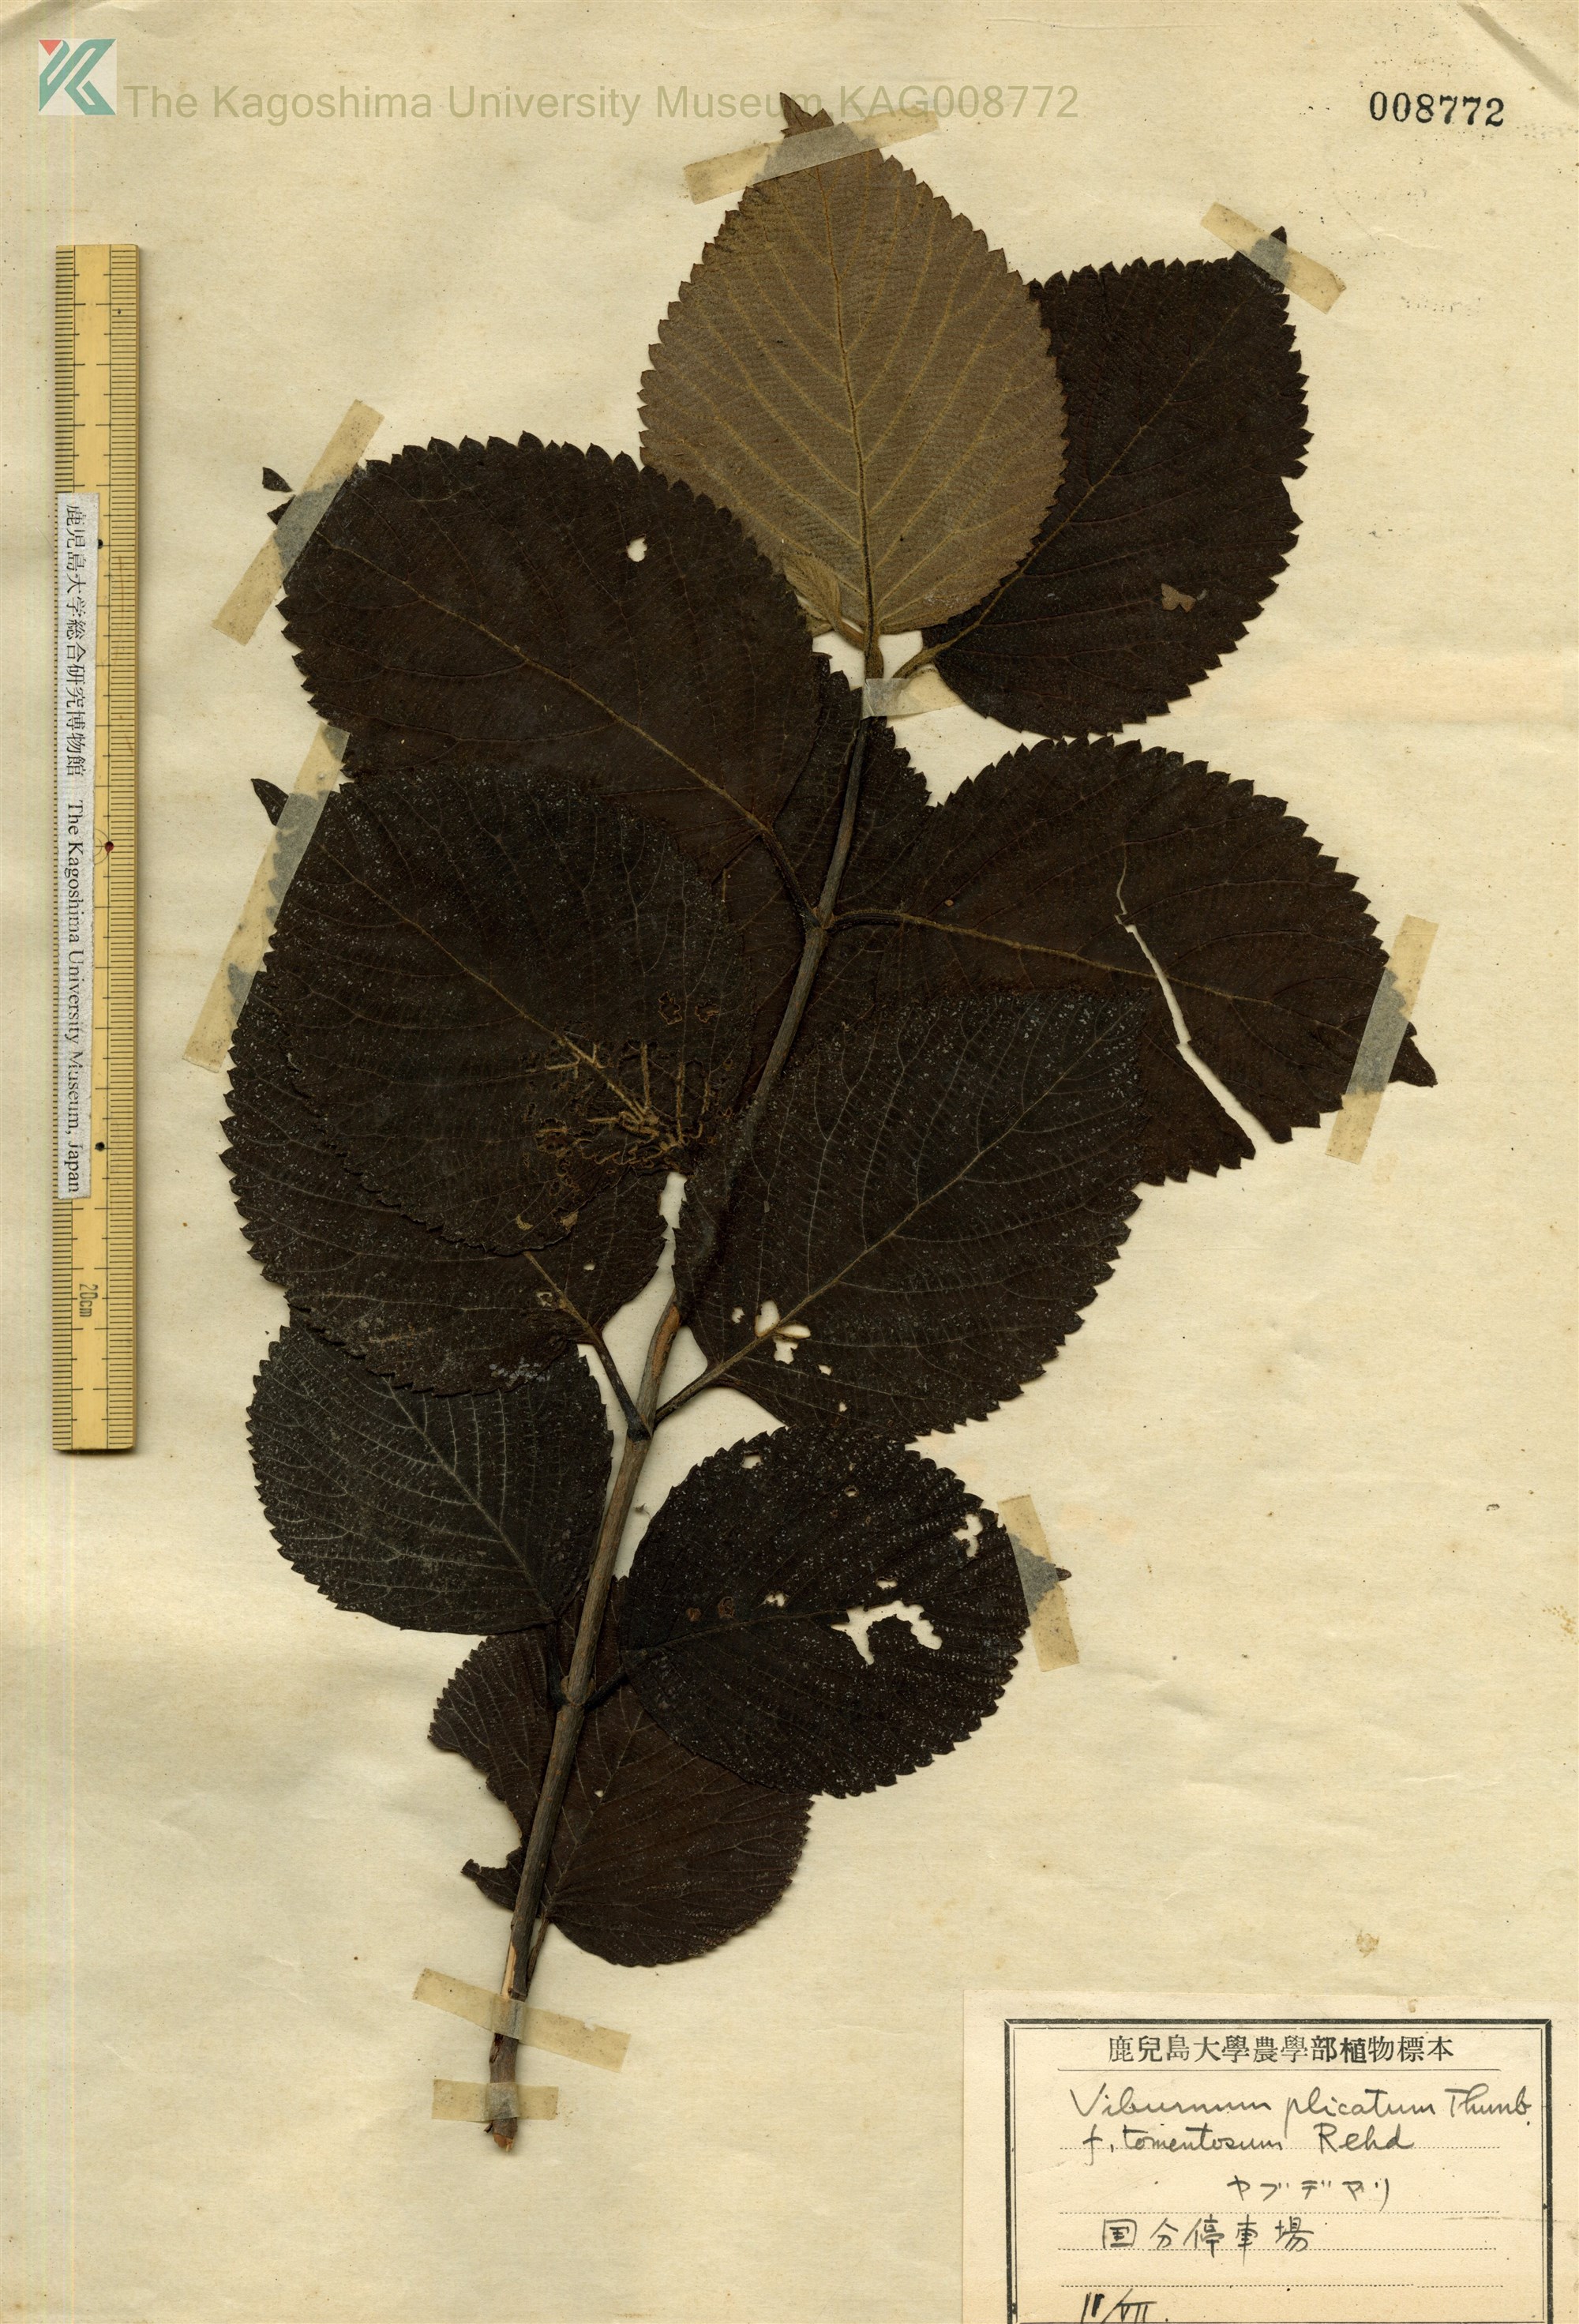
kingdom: Plantae
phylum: Tracheophyta
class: Magnoliopsida
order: Dipsacales
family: Viburnaceae
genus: Viburnum
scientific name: Viburnum plicatum
